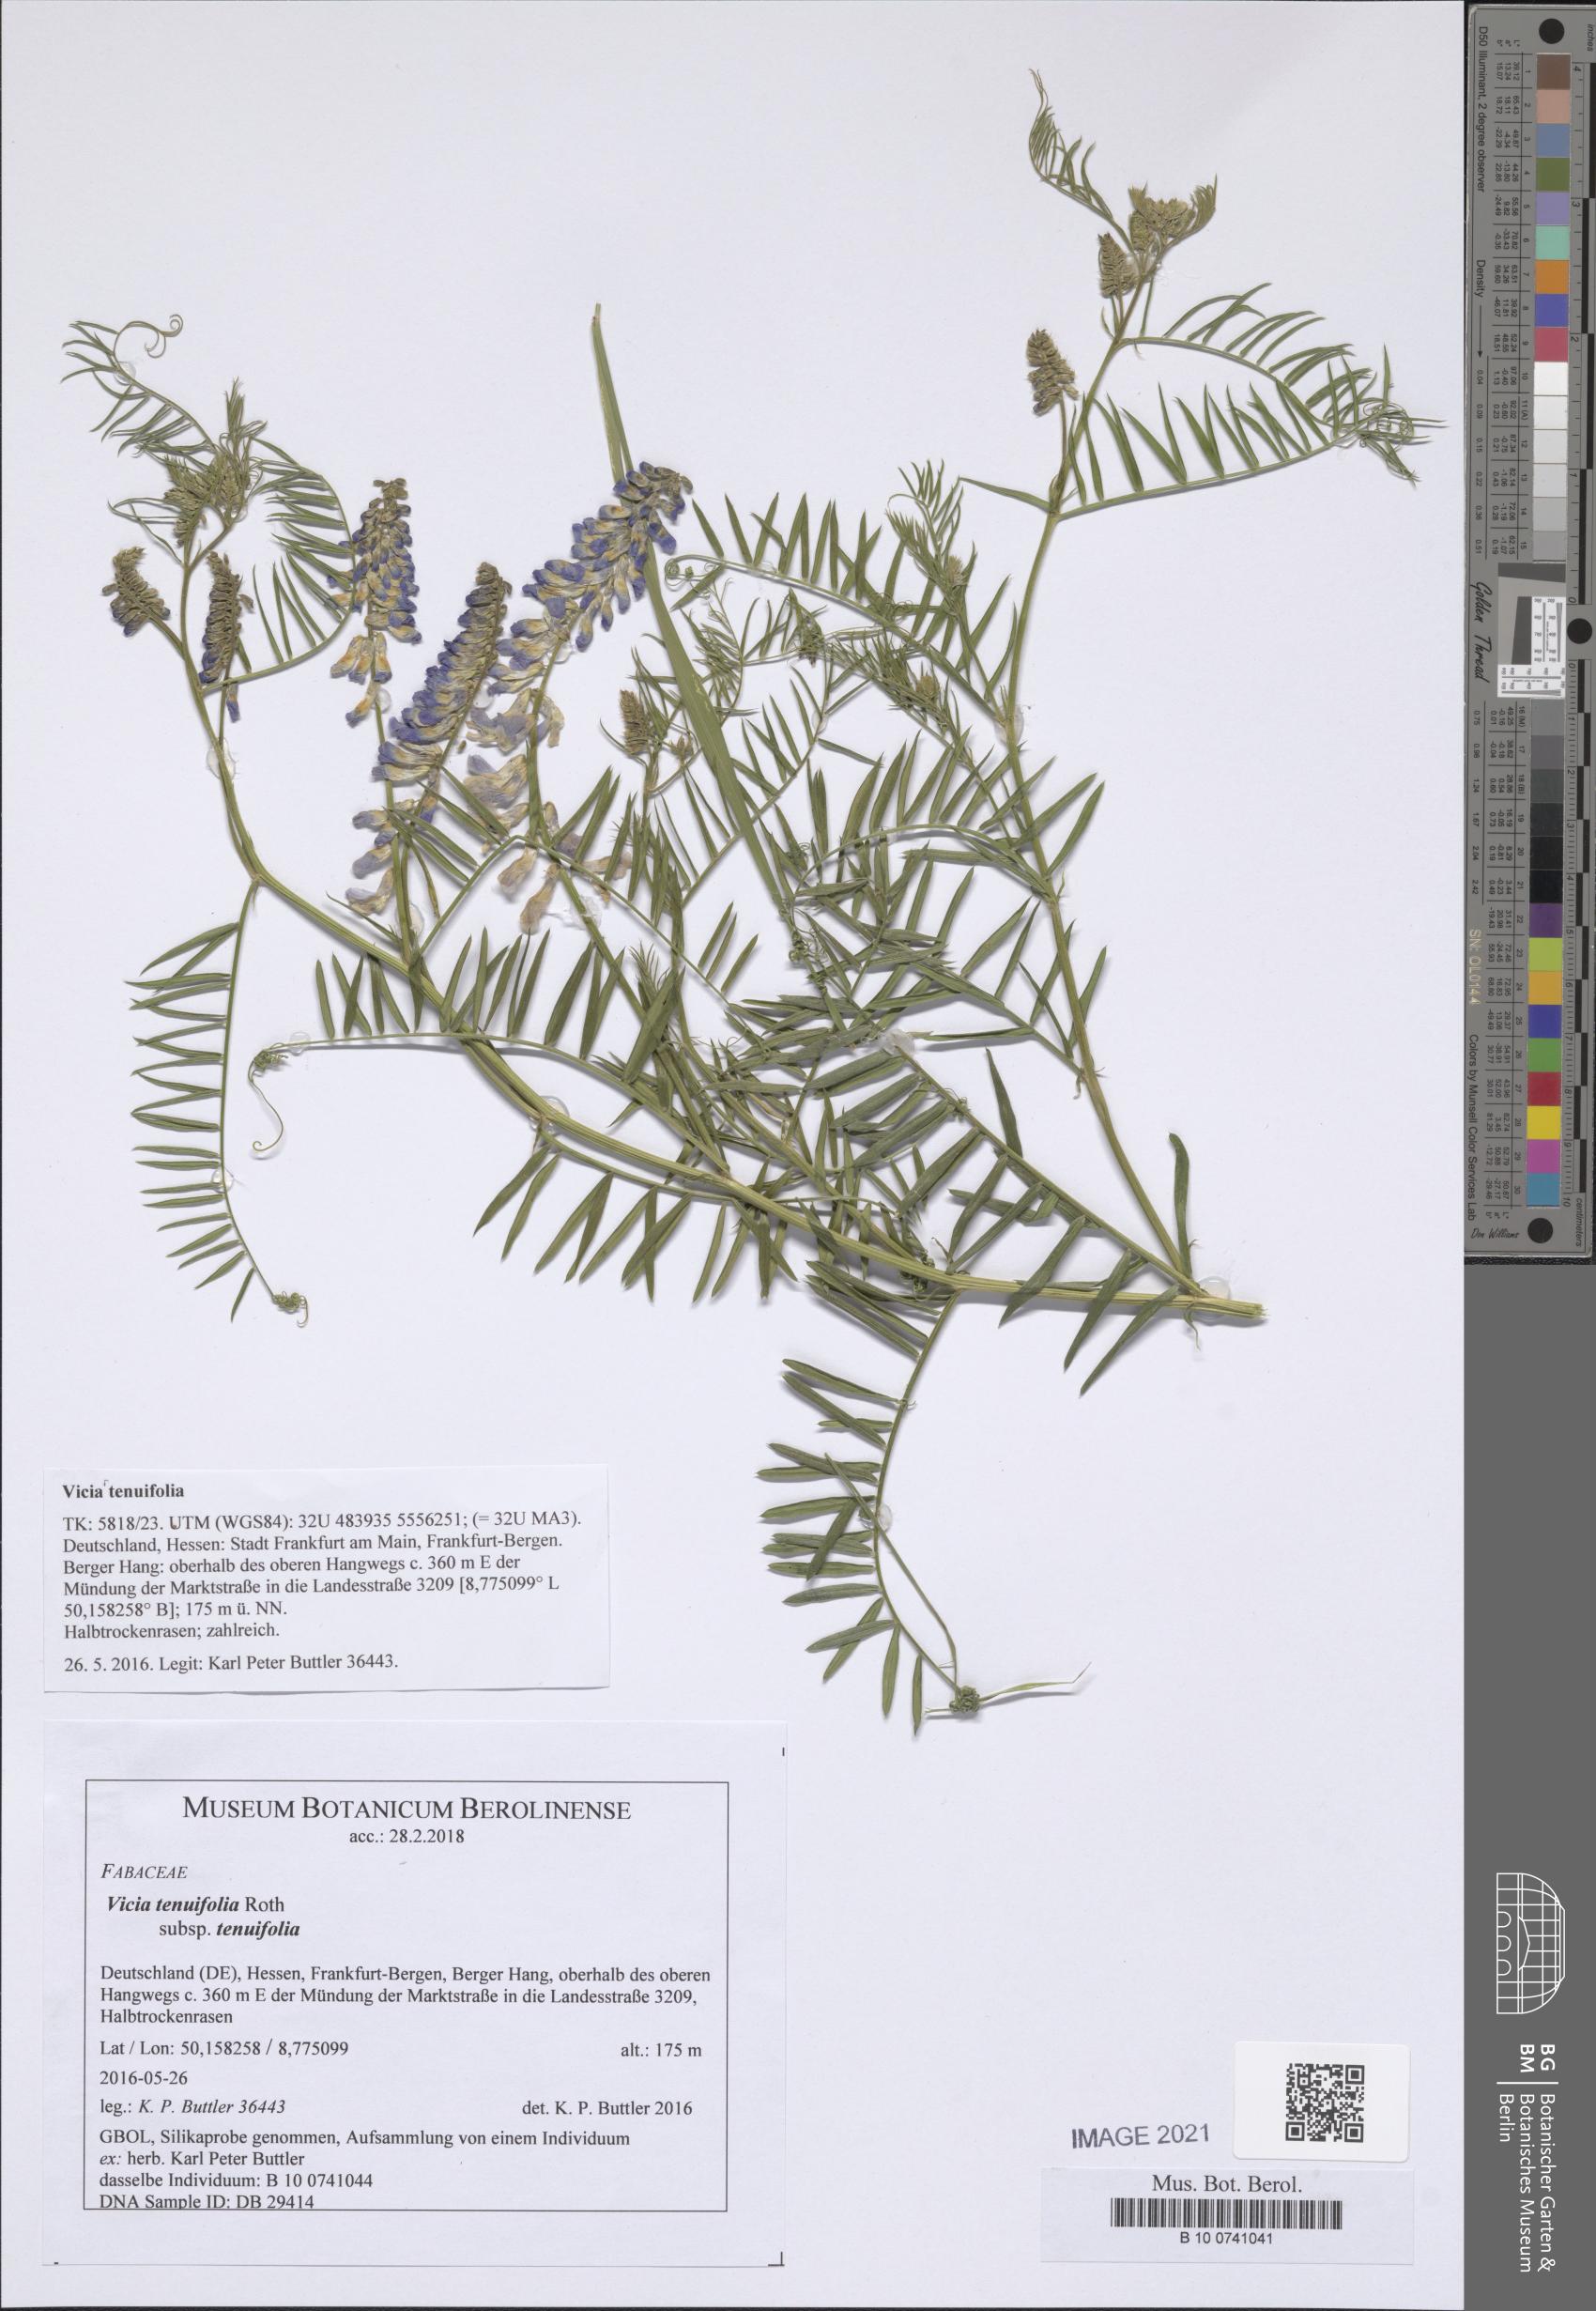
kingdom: Plantae
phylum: Tracheophyta
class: Magnoliopsida
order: Fabales
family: Fabaceae
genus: Vicia
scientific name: Vicia tenuifolia
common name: Fine-leaved vetch
